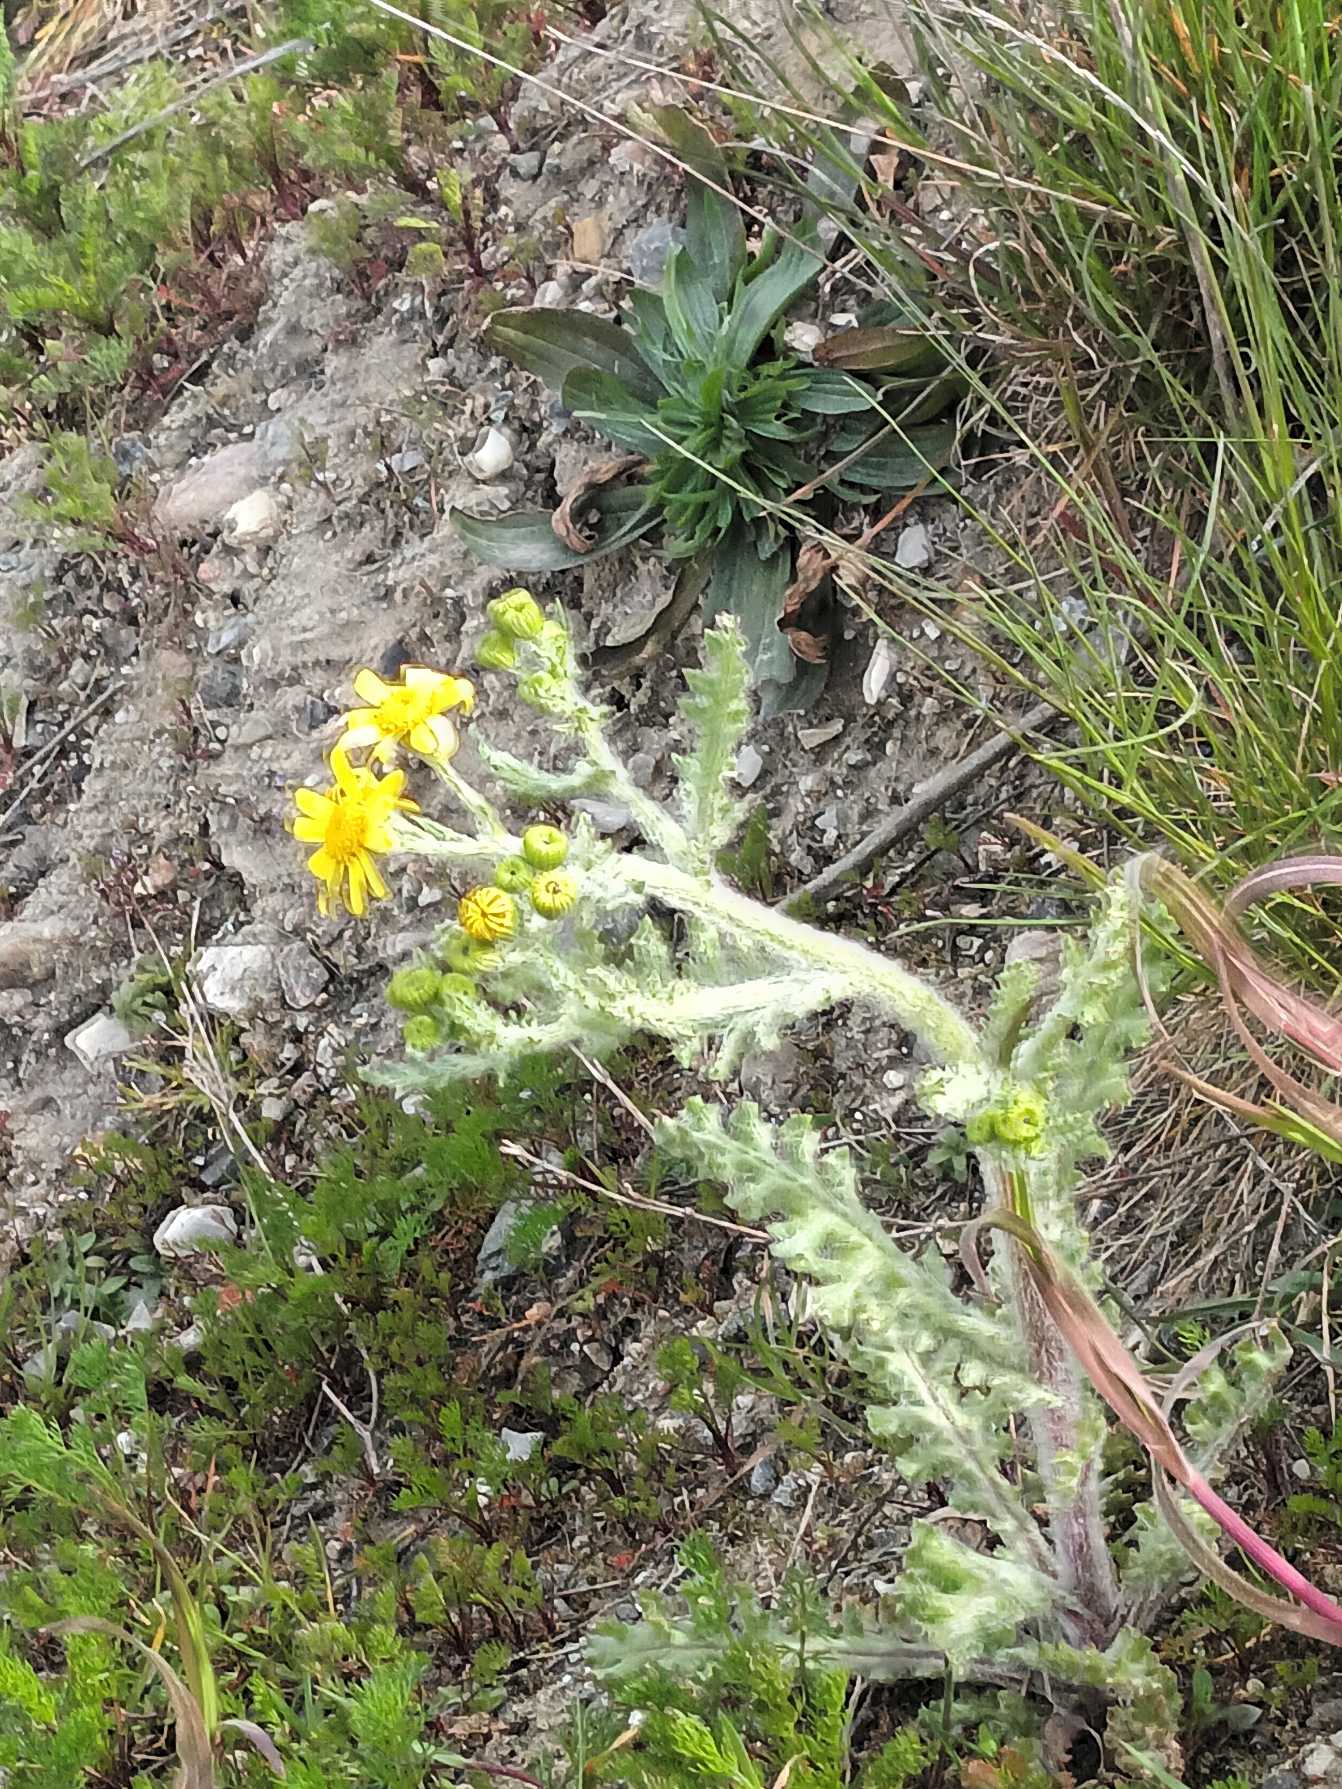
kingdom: Plantae
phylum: Tracheophyta
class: Magnoliopsida
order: Asterales
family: Asteraceae
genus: Senecio
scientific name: Senecio leucanthemifolius
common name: Vår-brandbæger
